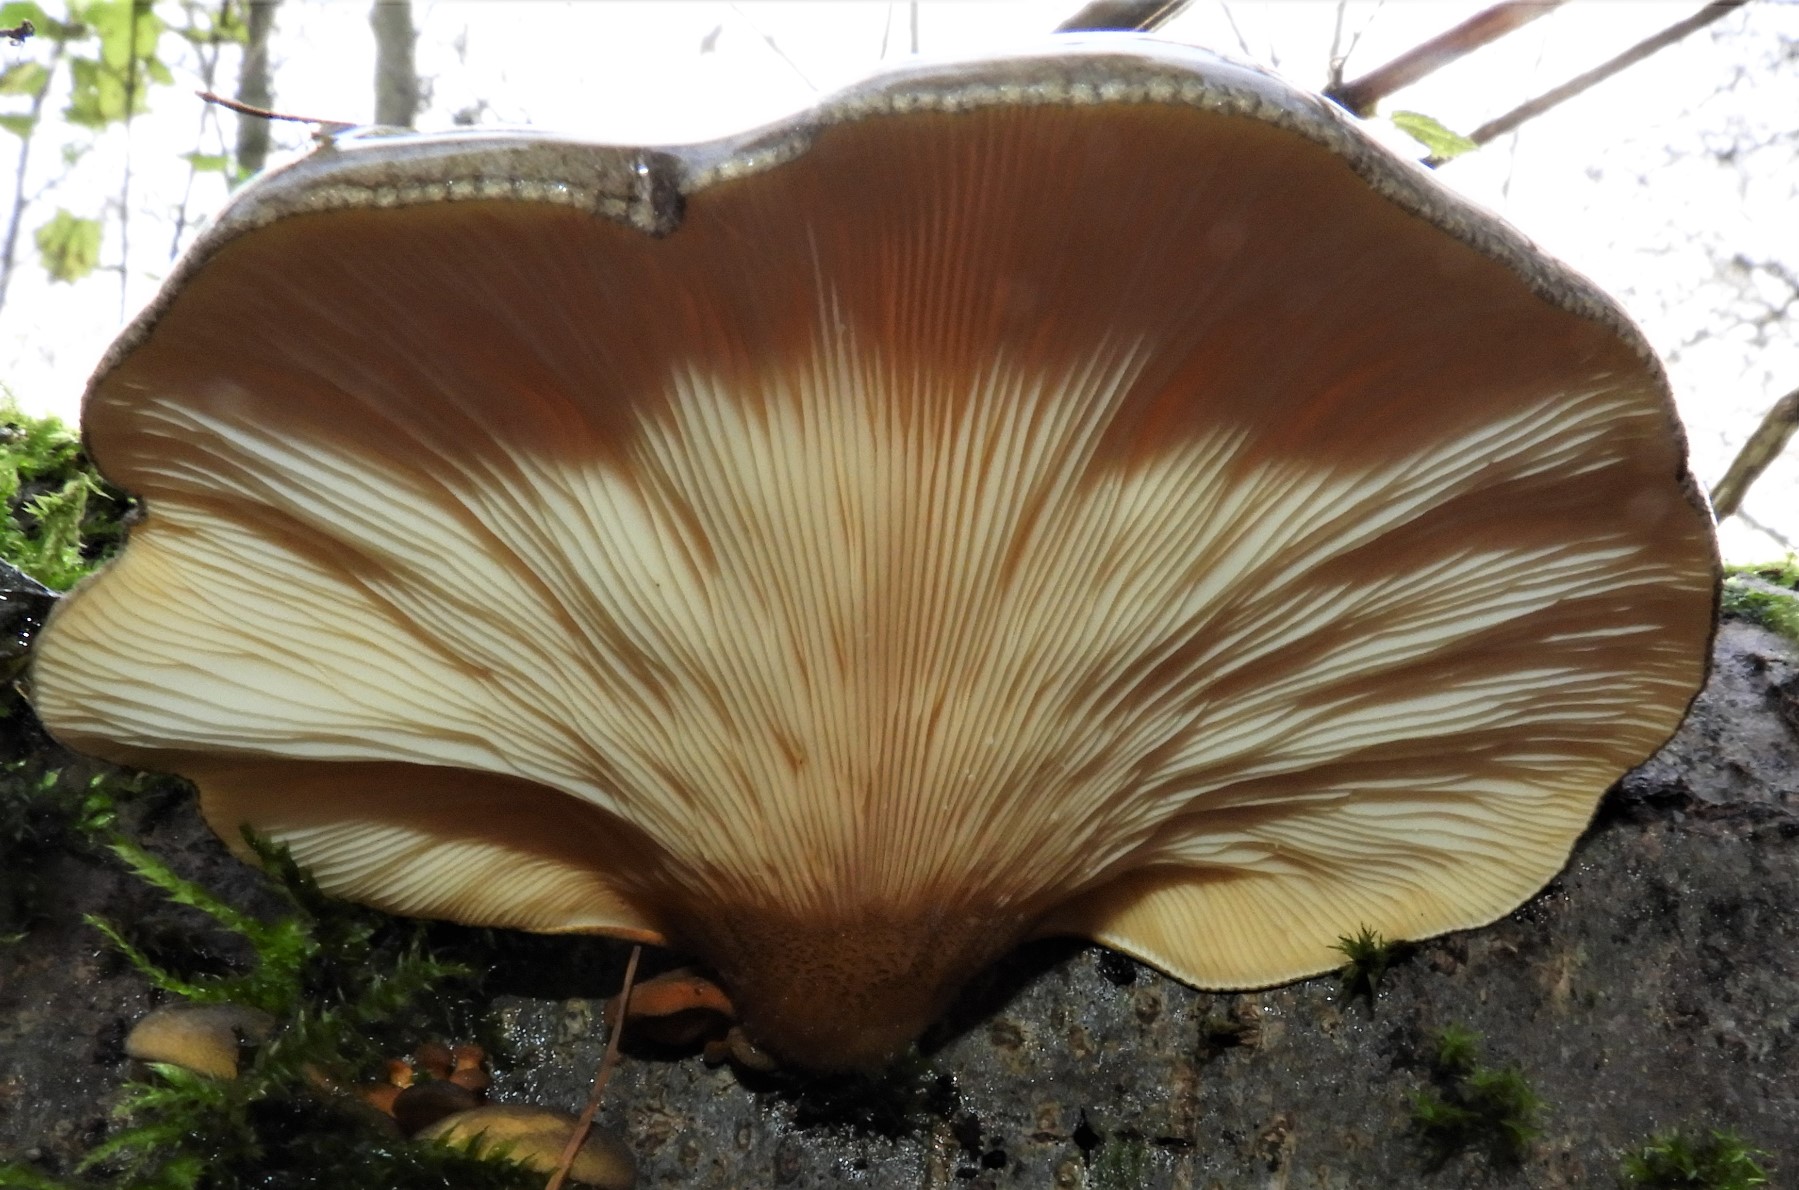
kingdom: Fungi
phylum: Basidiomycota
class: Agaricomycetes
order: Agaricales
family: Sarcomyxaceae
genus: Sarcomyxa
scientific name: Sarcomyxa serotina
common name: gummihat
